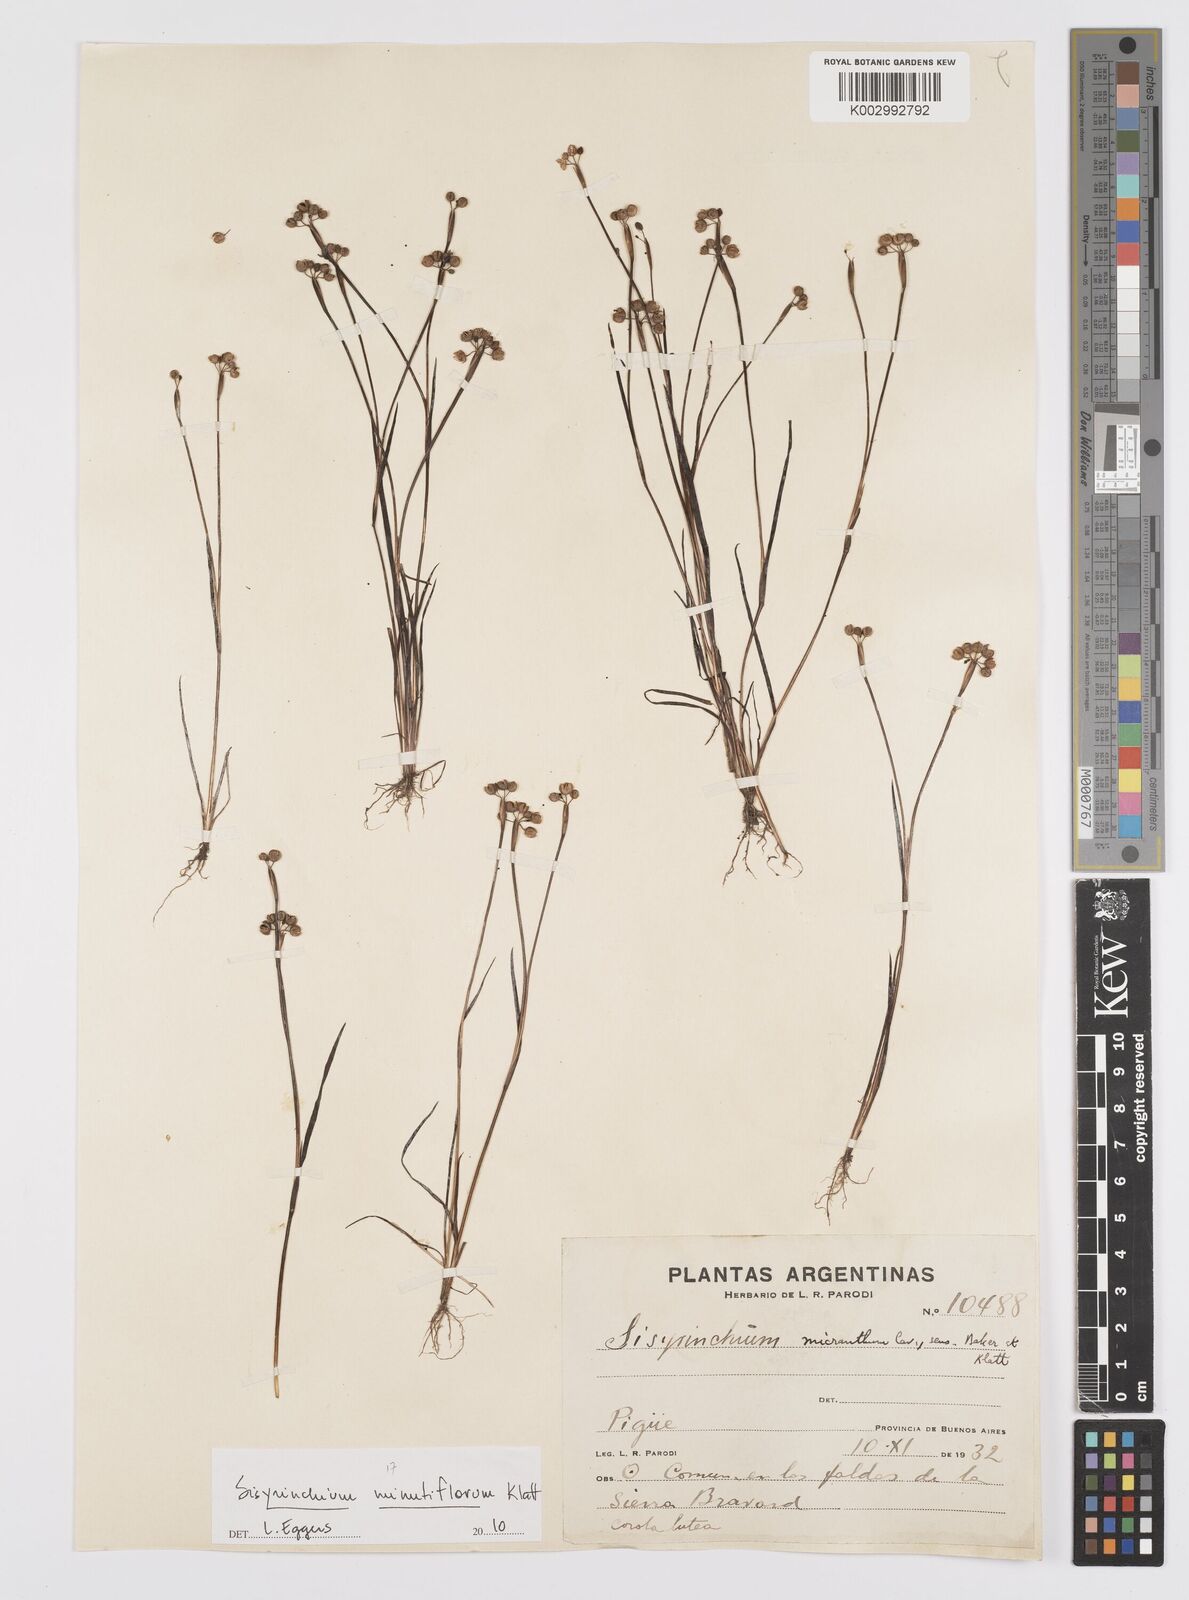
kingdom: Plantae
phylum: Tracheophyta
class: Liliopsida
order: Asparagales
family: Iridaceae
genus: Sisyrinchium
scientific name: Sisyrinchium minutiflorum
